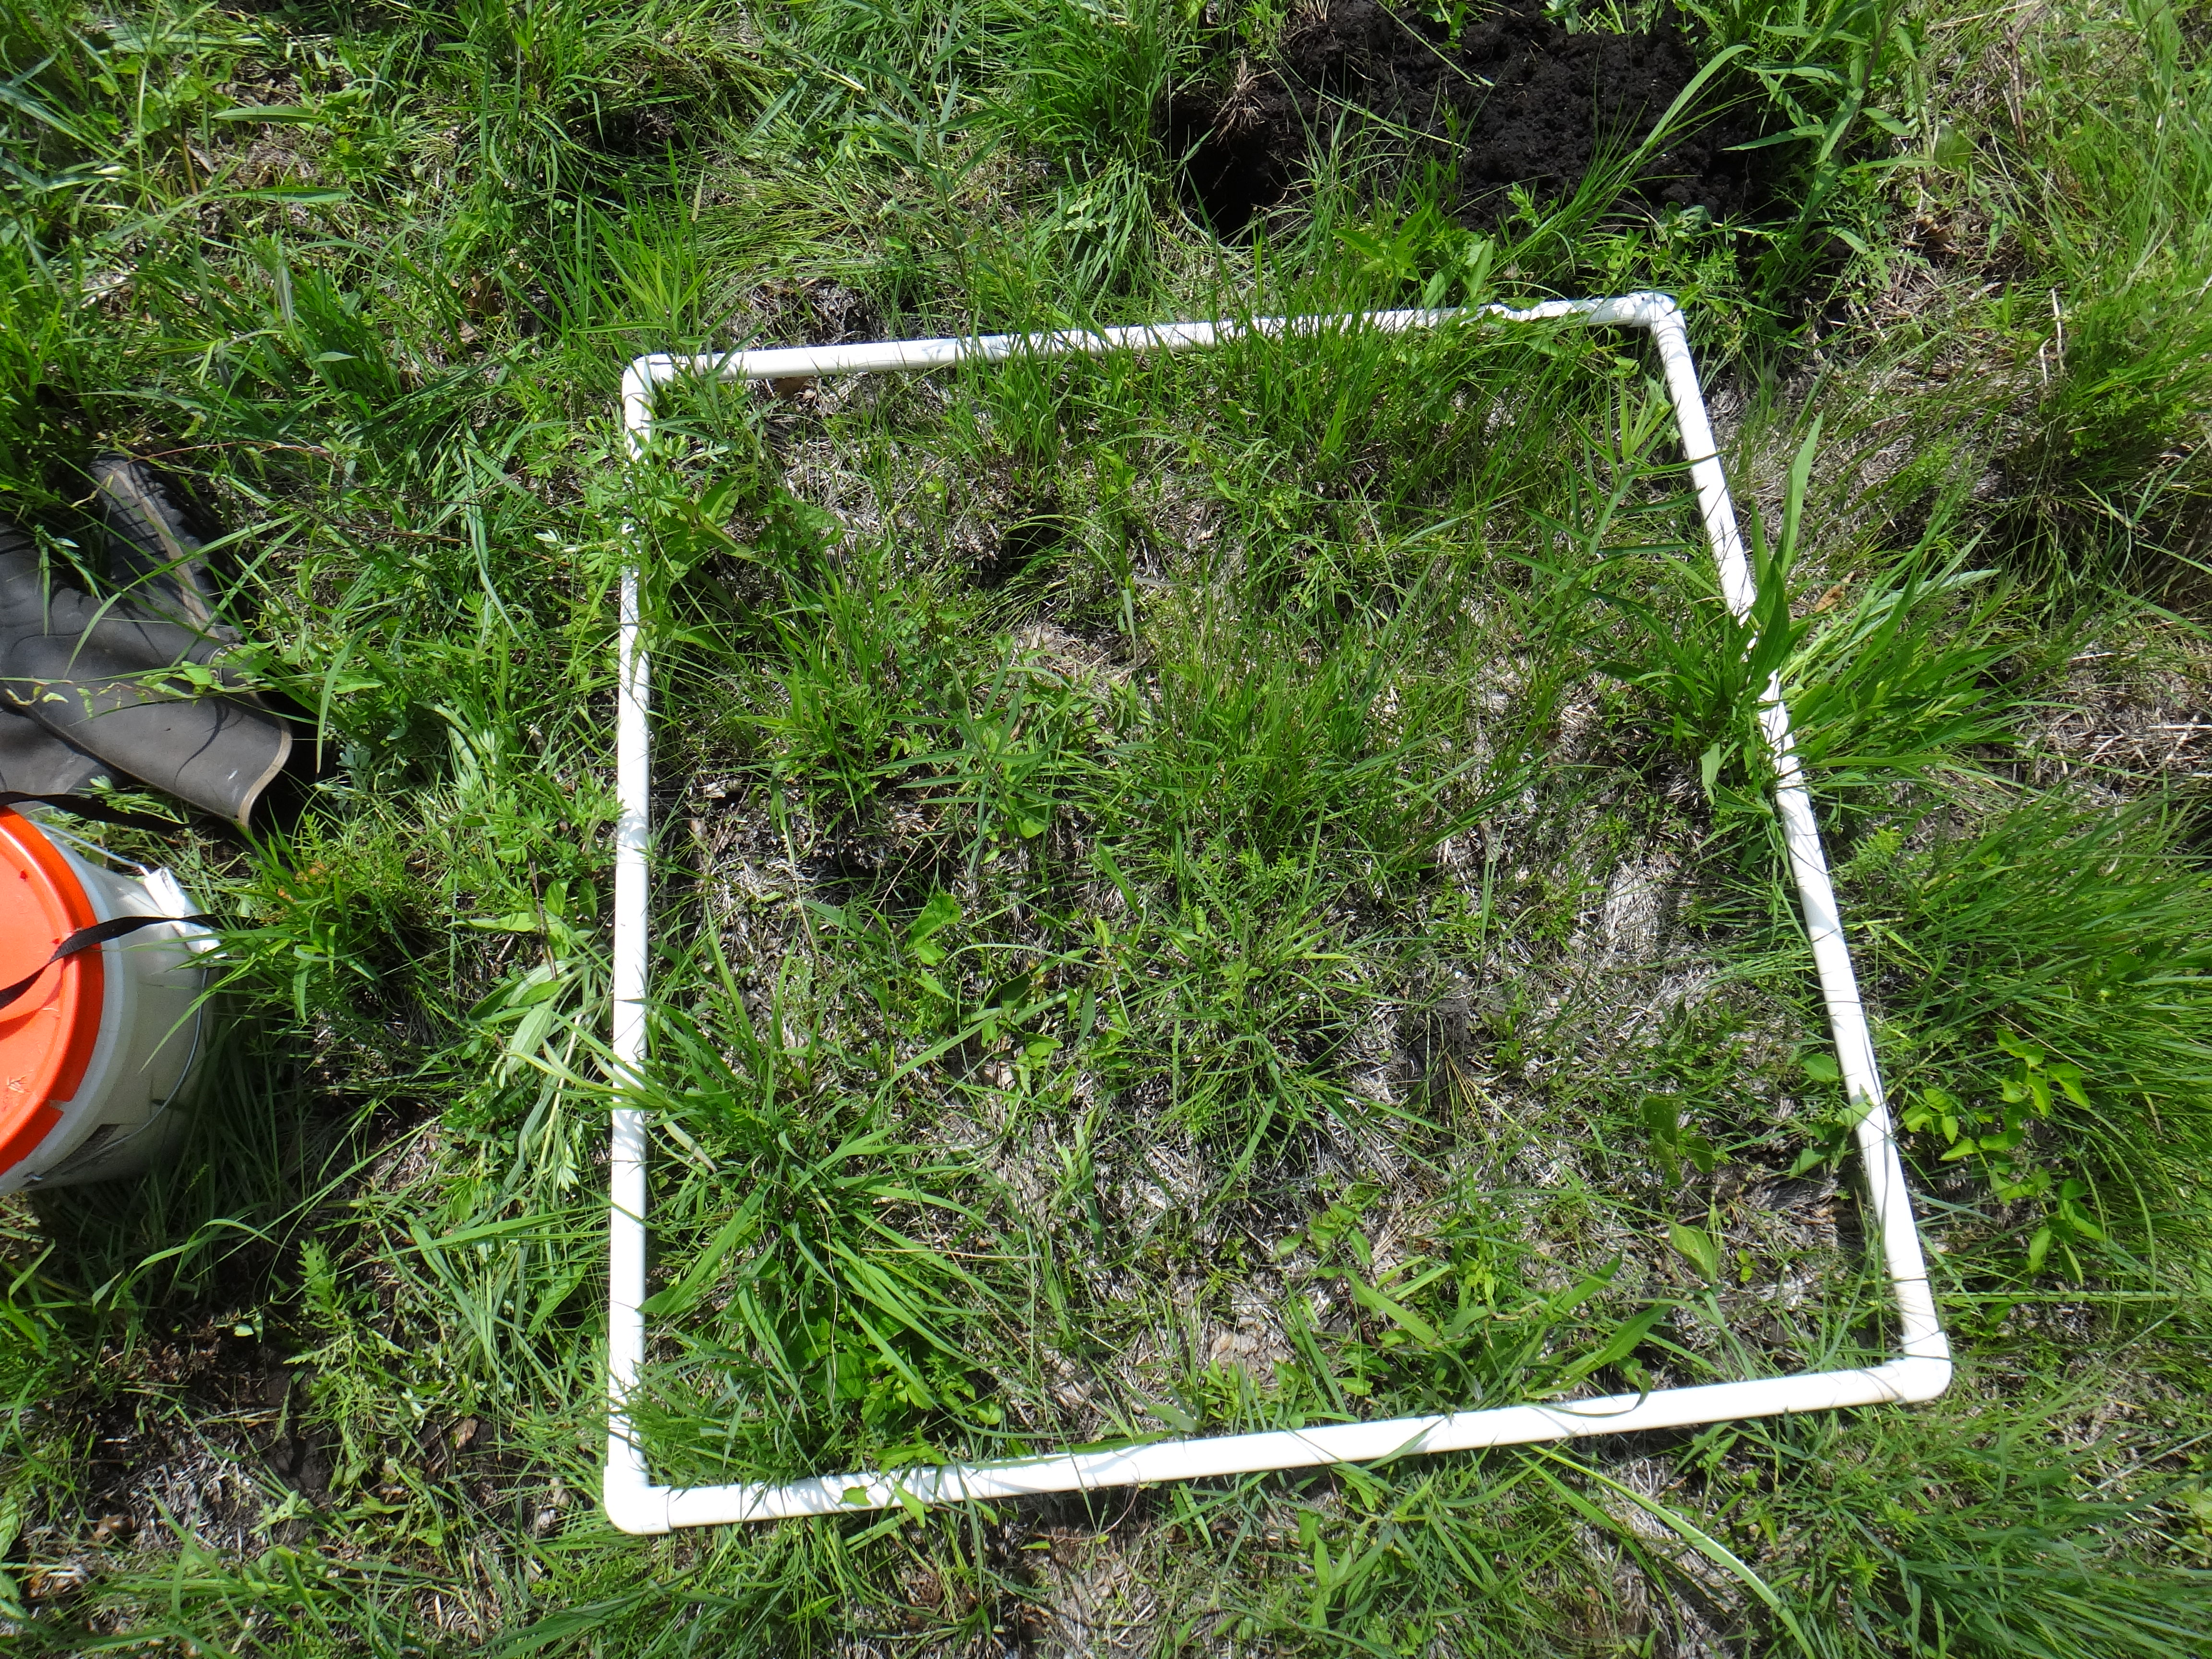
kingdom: Plantae
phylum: Tracheophyta
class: Magnoliopsida
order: Asterales
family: Asteraceae
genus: Solidago
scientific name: Solidago ohioensis
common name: Ohio goldenrod
